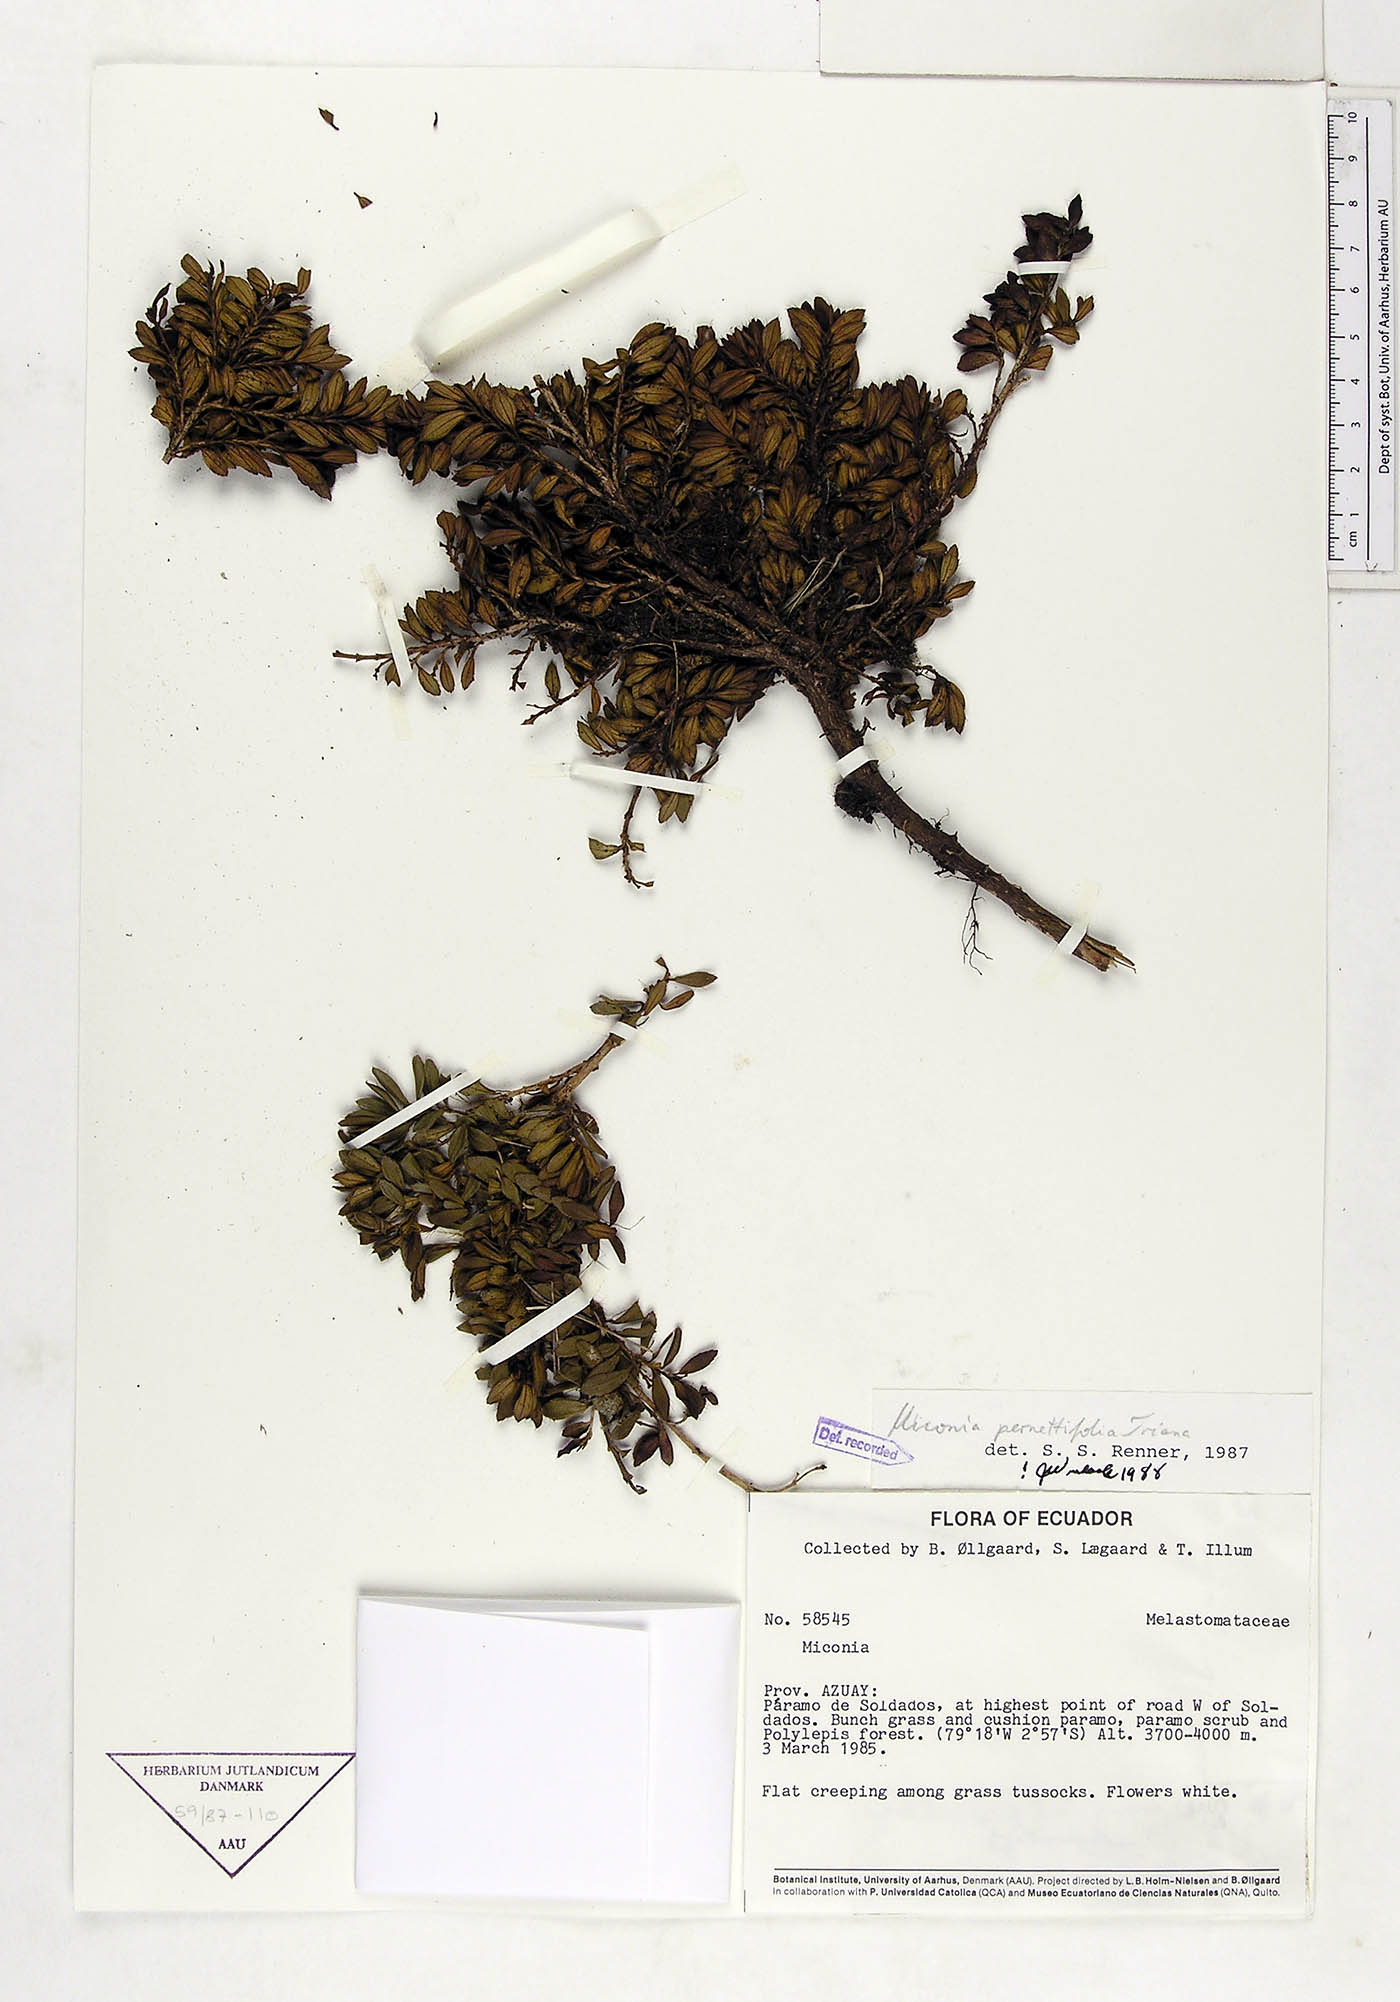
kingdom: Plantae
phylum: Tracheophyta
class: Magnoliopsida
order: Myrtales
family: Melastomataceae
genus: Miconia
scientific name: Miconia pernettifolia
